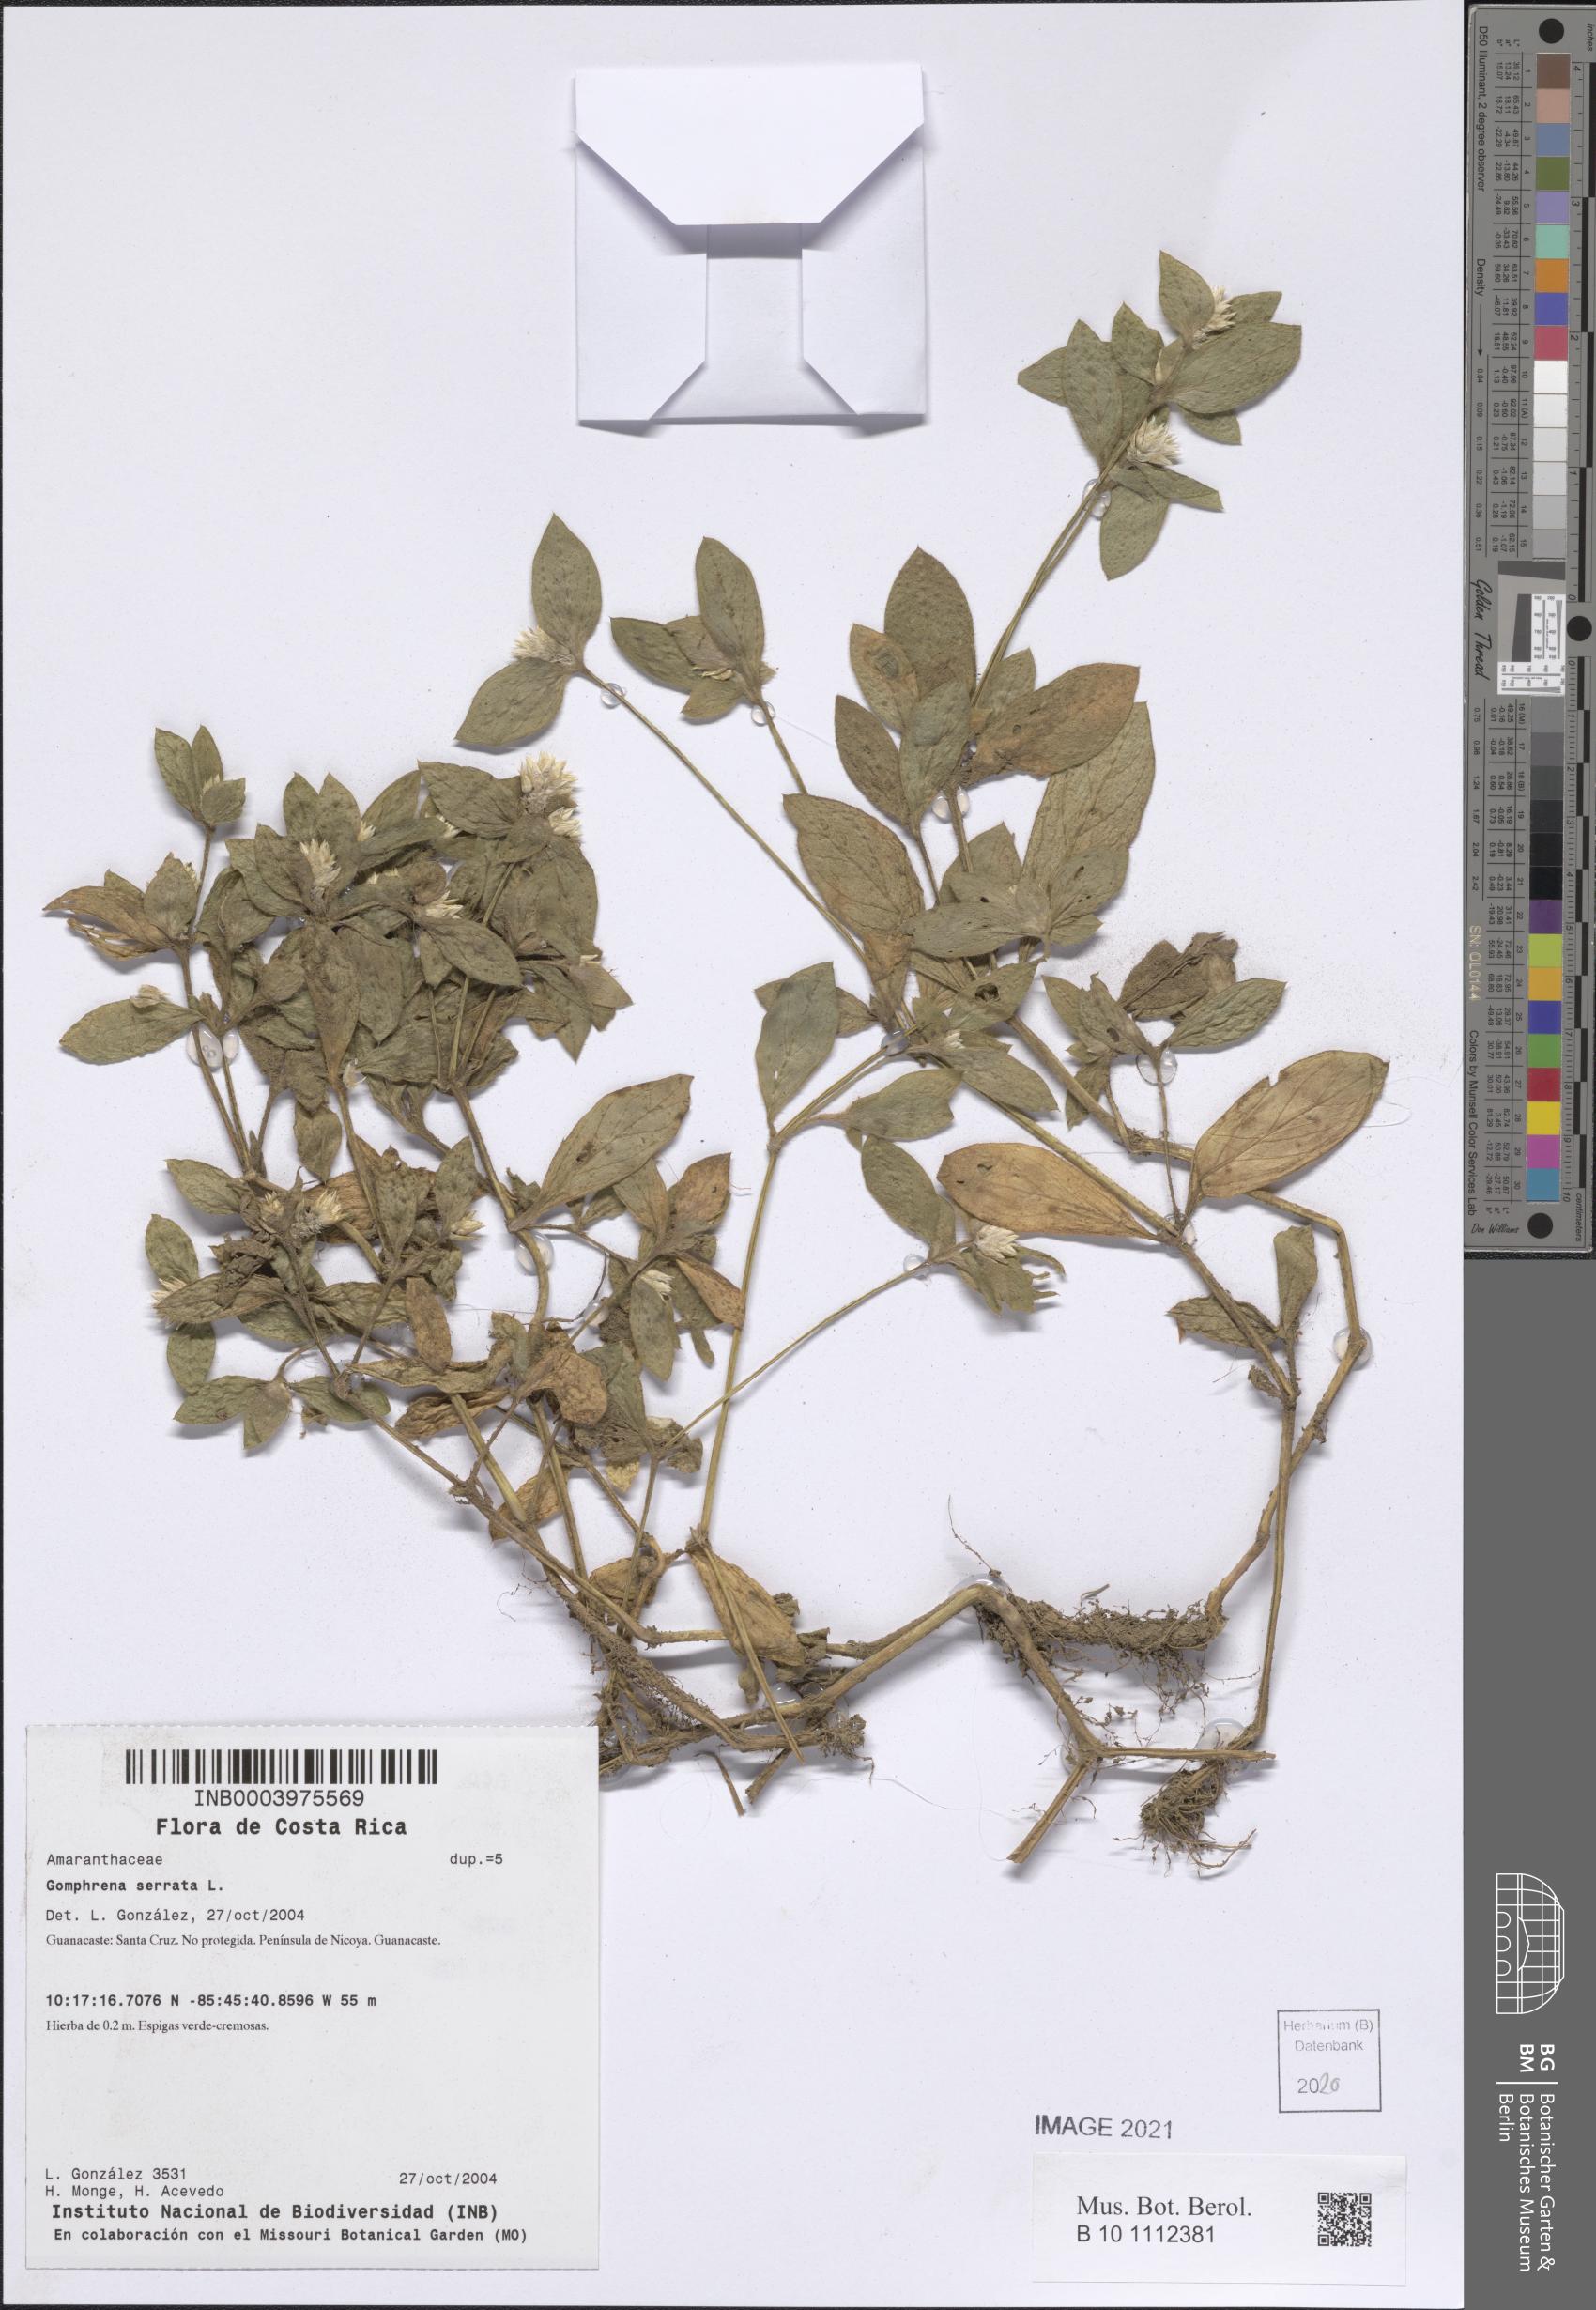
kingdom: Plantae
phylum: Tracheophyta
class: Magnoliopsida
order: Caryophyllales
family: Amaranthaceae
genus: Gomphrena
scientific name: Gomphrena serrata
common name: Arrasa con todo
